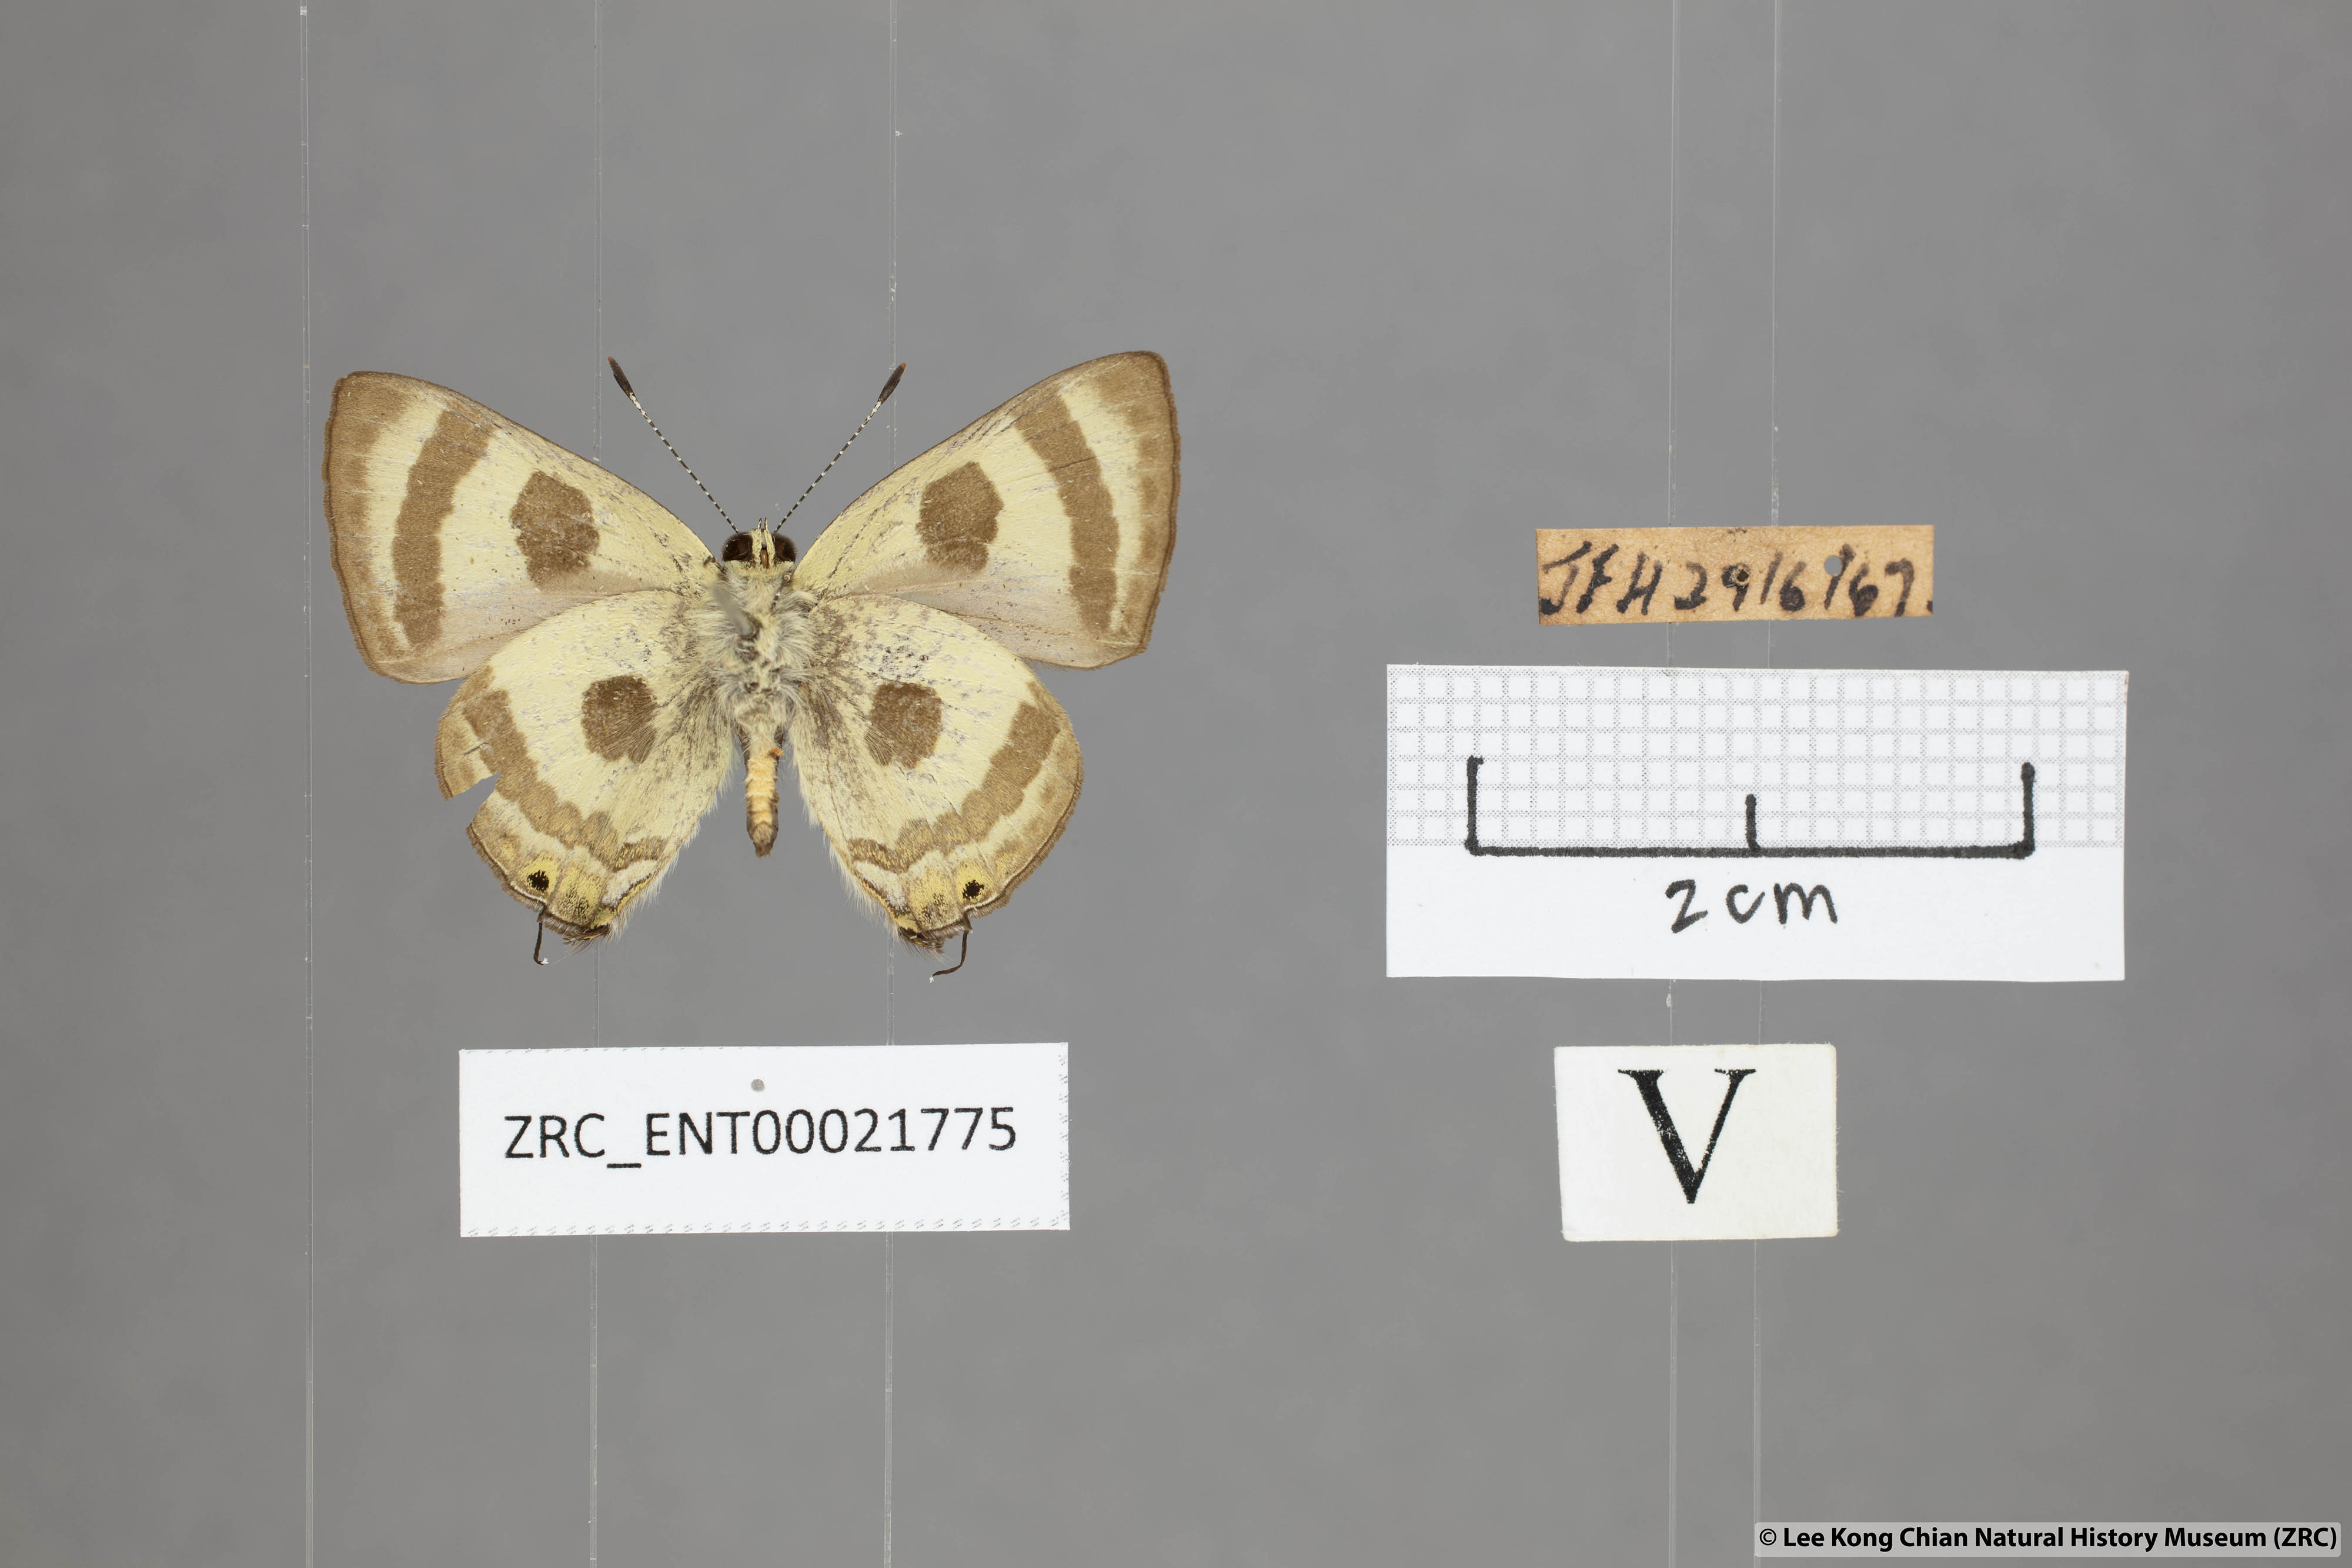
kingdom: Animalia
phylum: Arthropoda
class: Insecta
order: Lepidoptera
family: Lycaenidae
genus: Rapala
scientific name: Rapala
